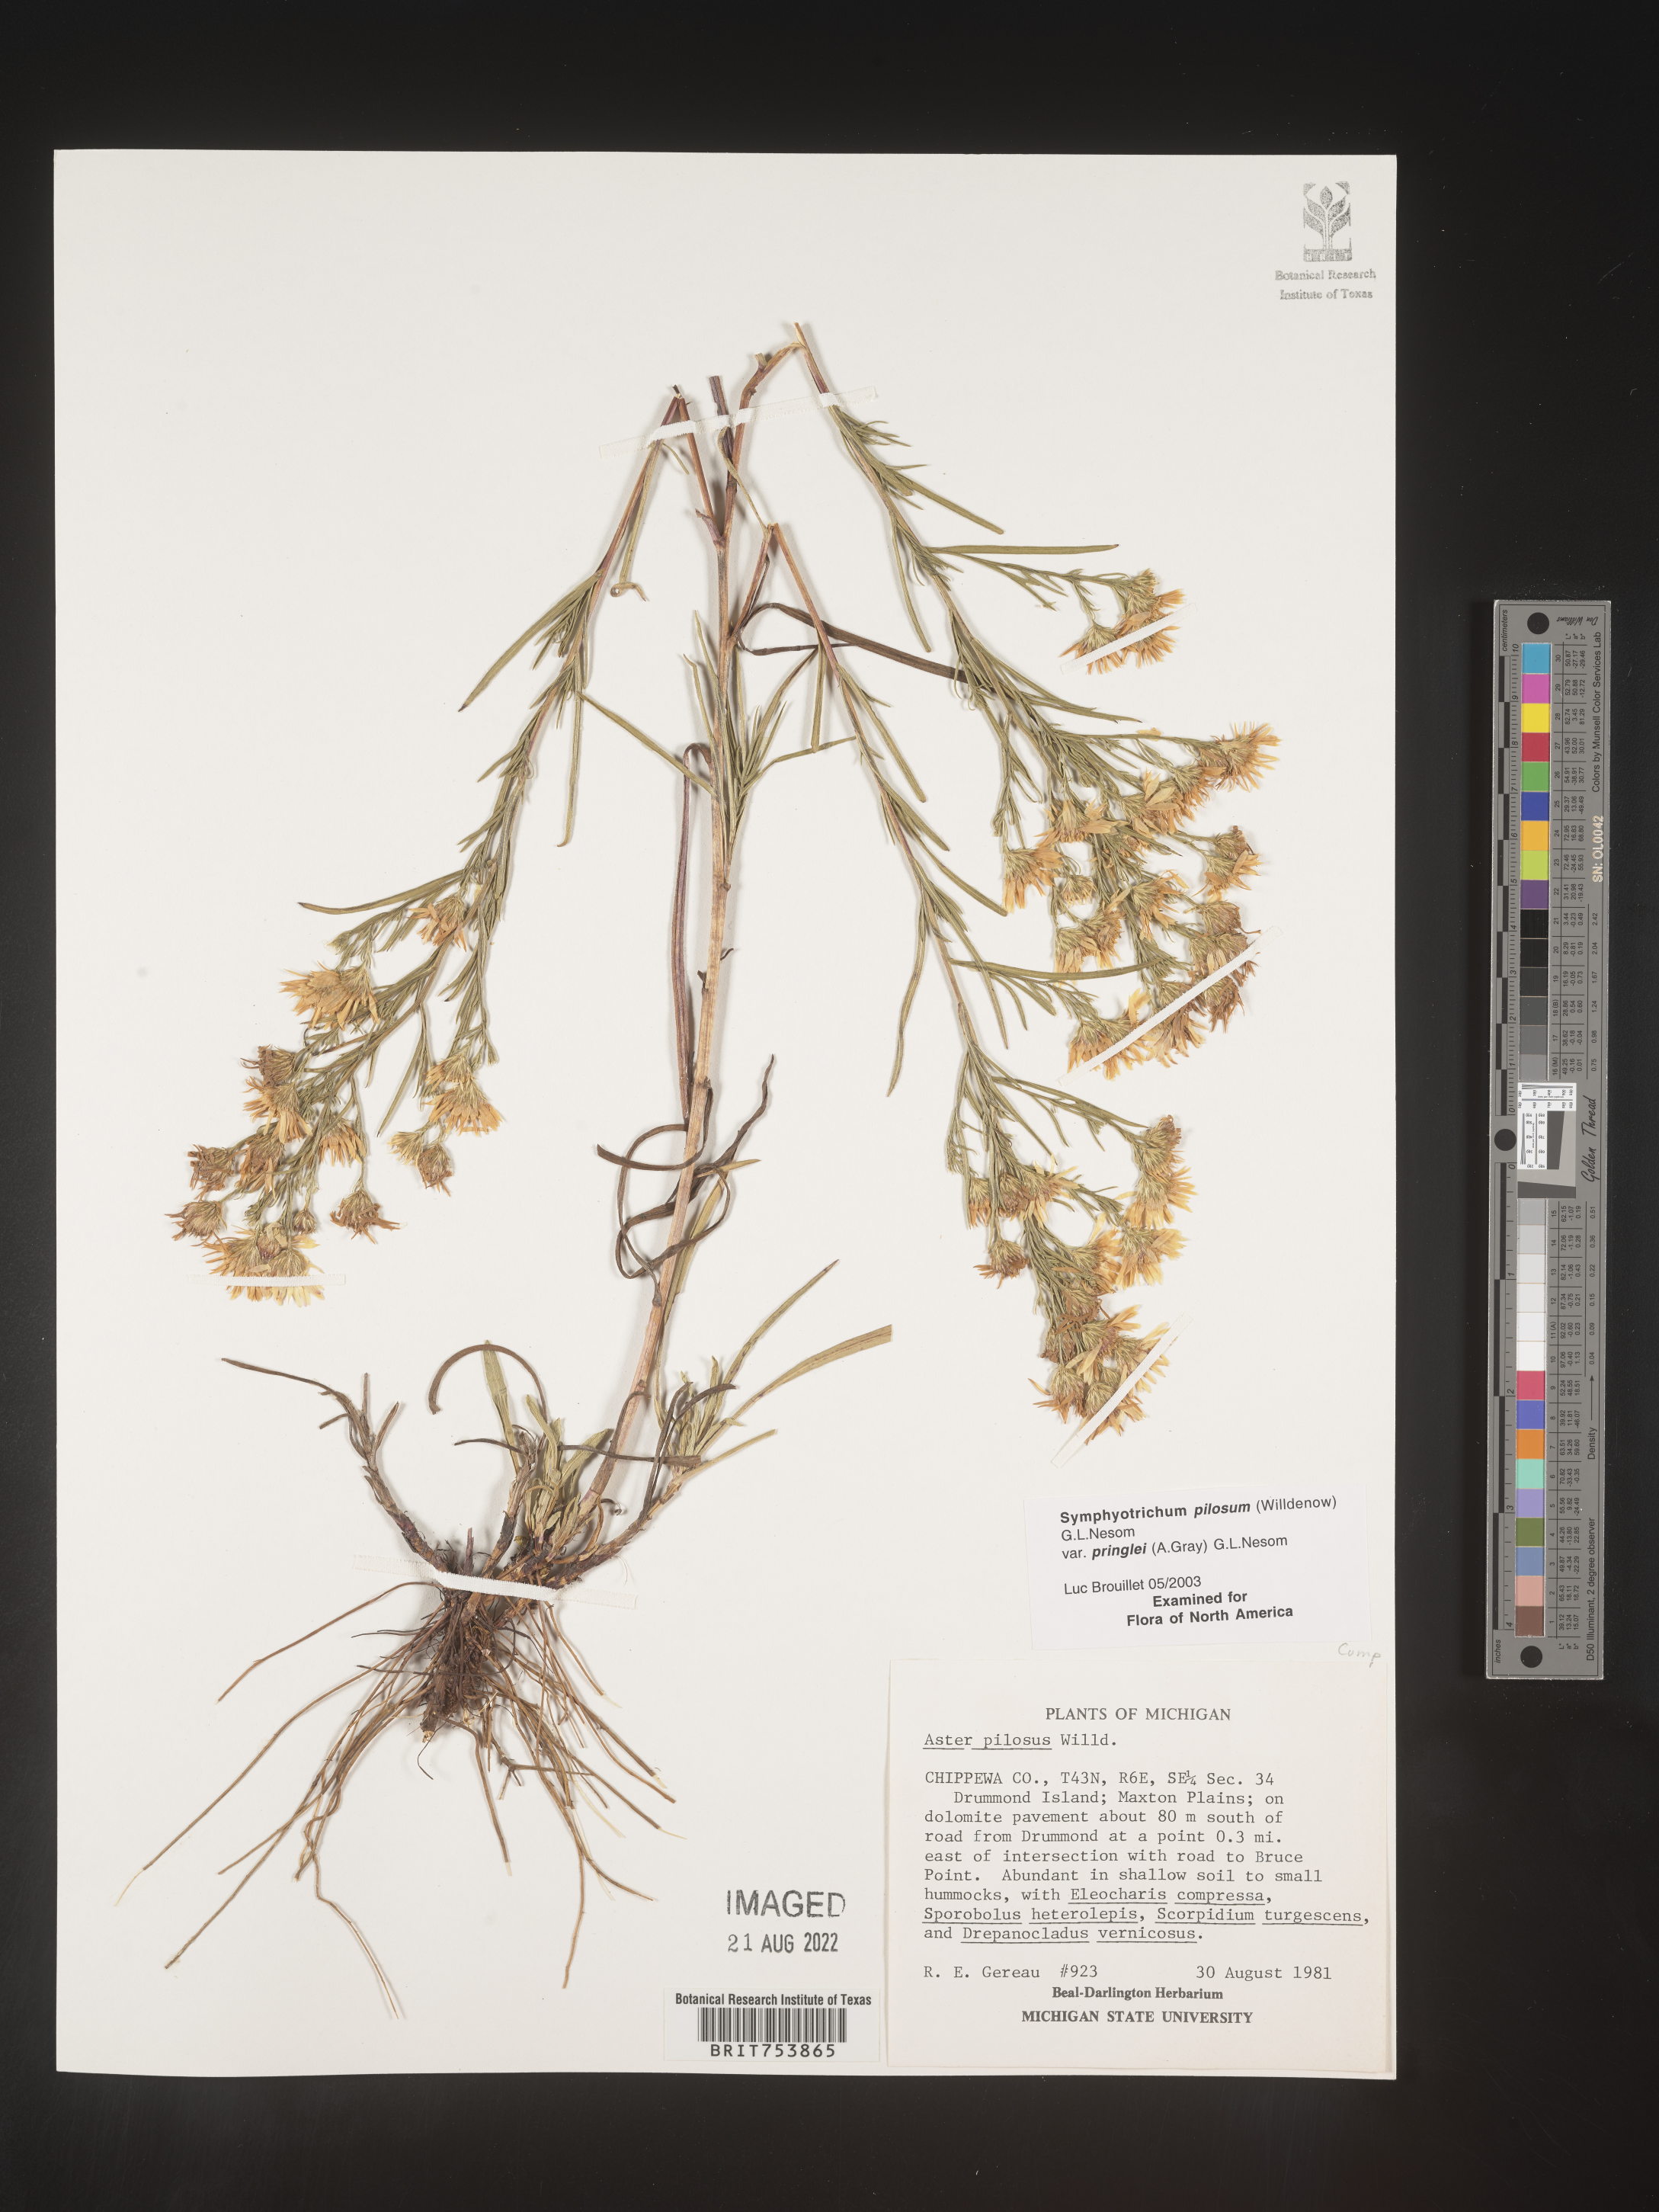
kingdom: Plantae
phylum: Tracheophyta
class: Magnoliopsida
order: Asterales
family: Asteraceae
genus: Symphyotrichum
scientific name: Symphyotrichum pilosum
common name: Awl aster
